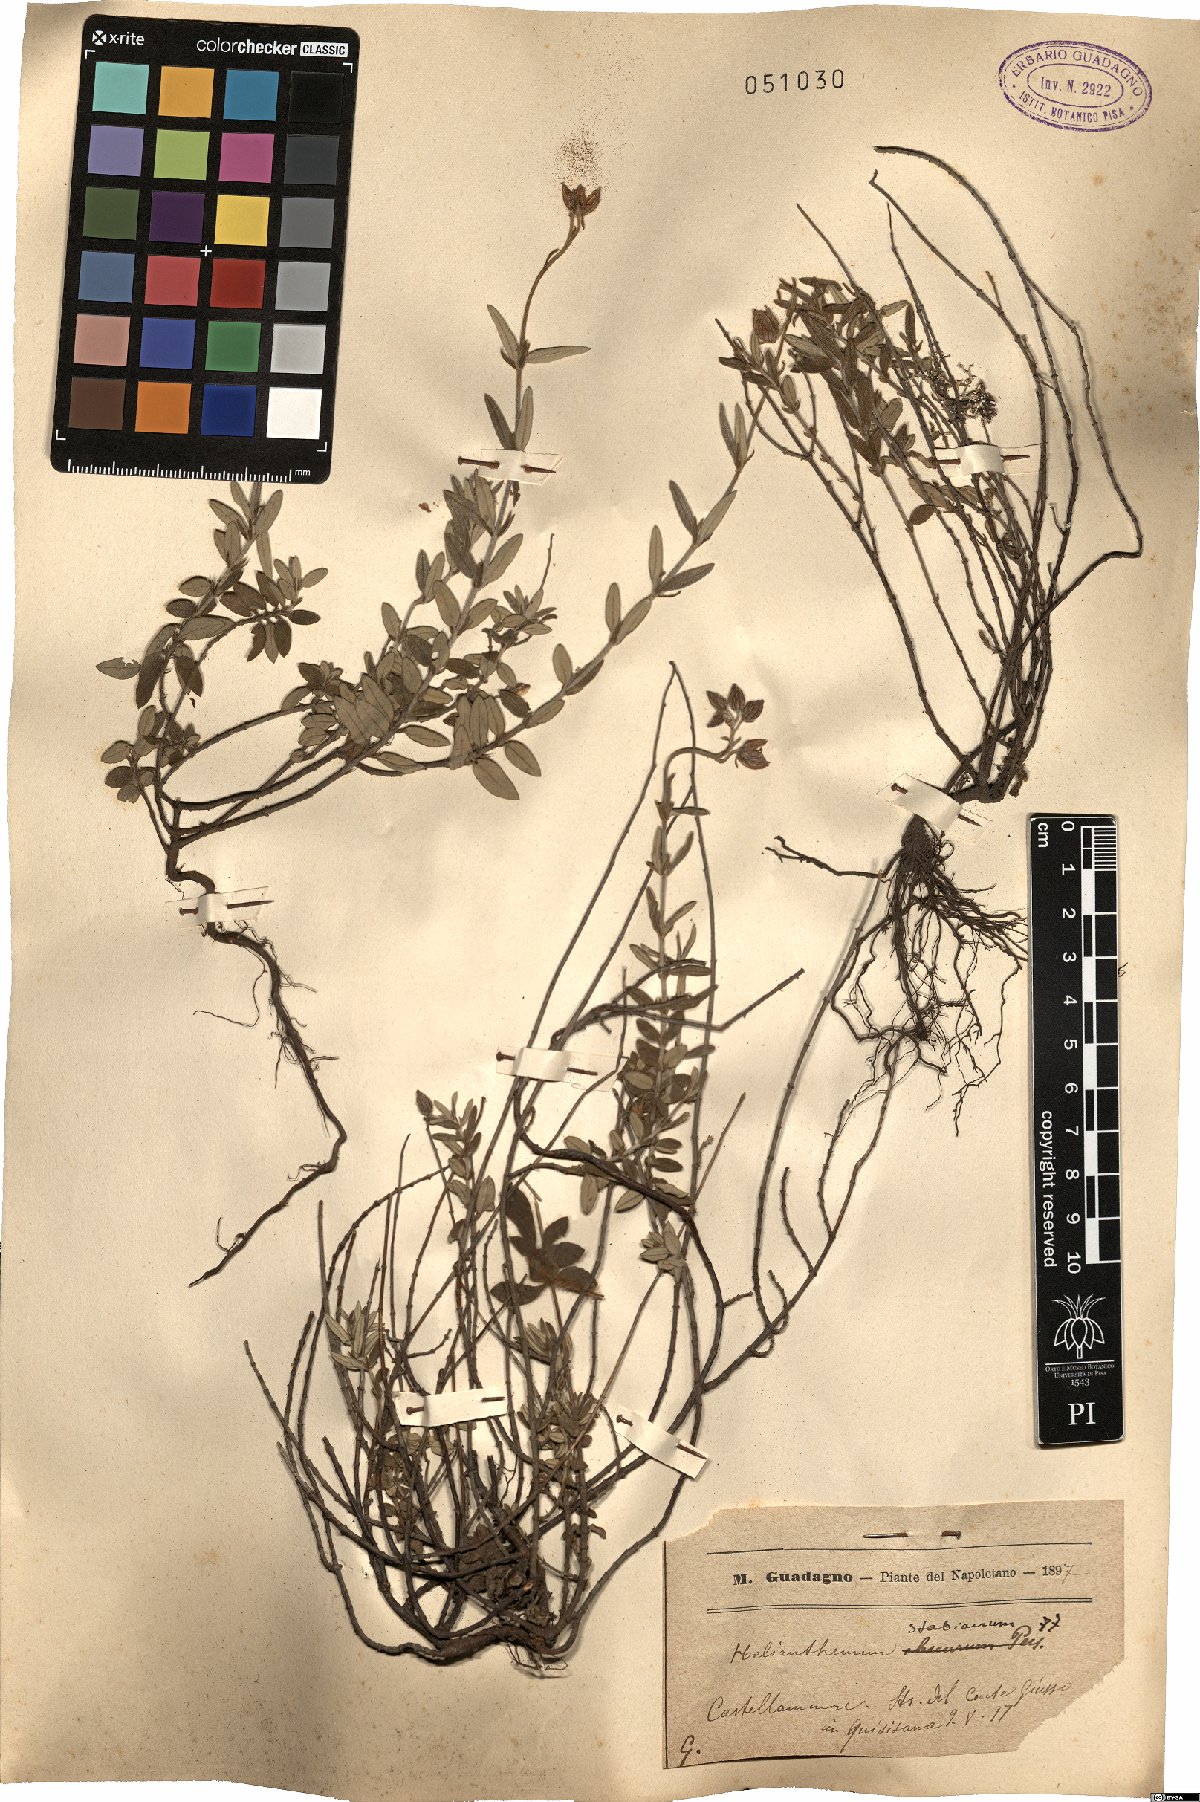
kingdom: Plantae
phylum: Tracheophyta
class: Magnoliopsida
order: Malvales
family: Cistaceae
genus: Helianthemum
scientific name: Helianthemum croceum
